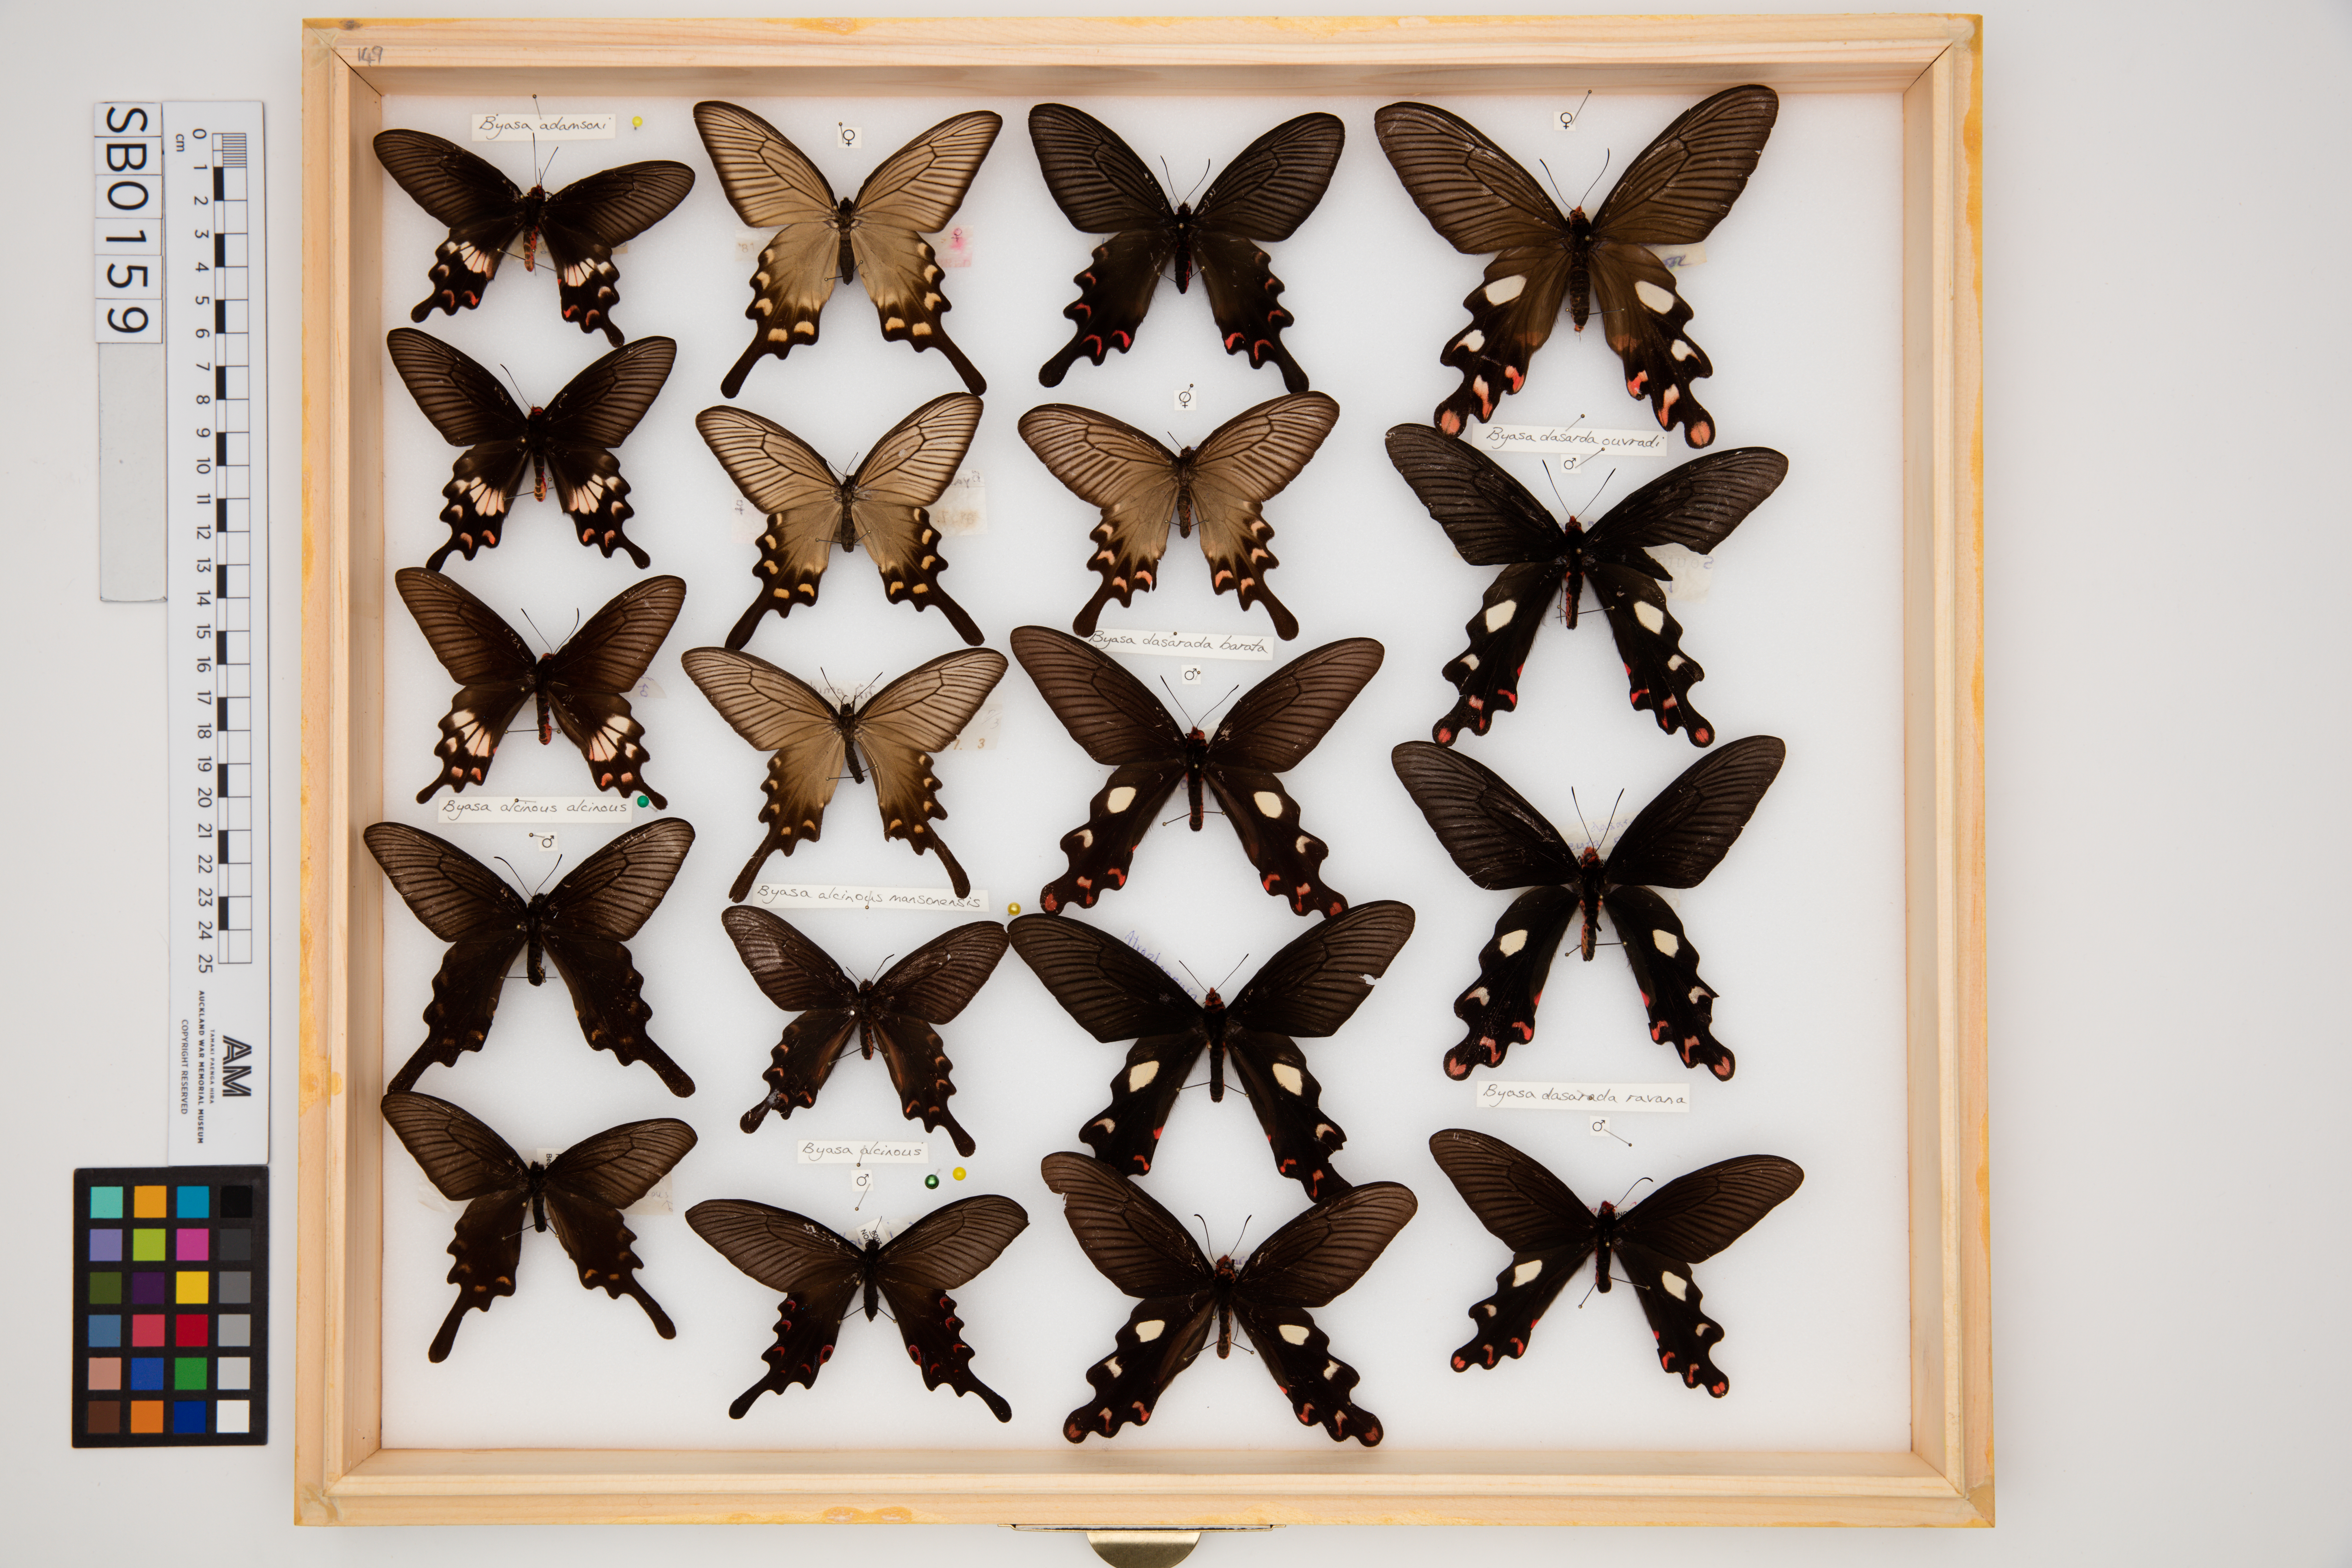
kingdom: Animalia
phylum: Arthropoda
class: Insecta
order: Lepidoptera
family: Papilionidae
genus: Byasa
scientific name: Byasa adamsoni
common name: Adamson's rose
